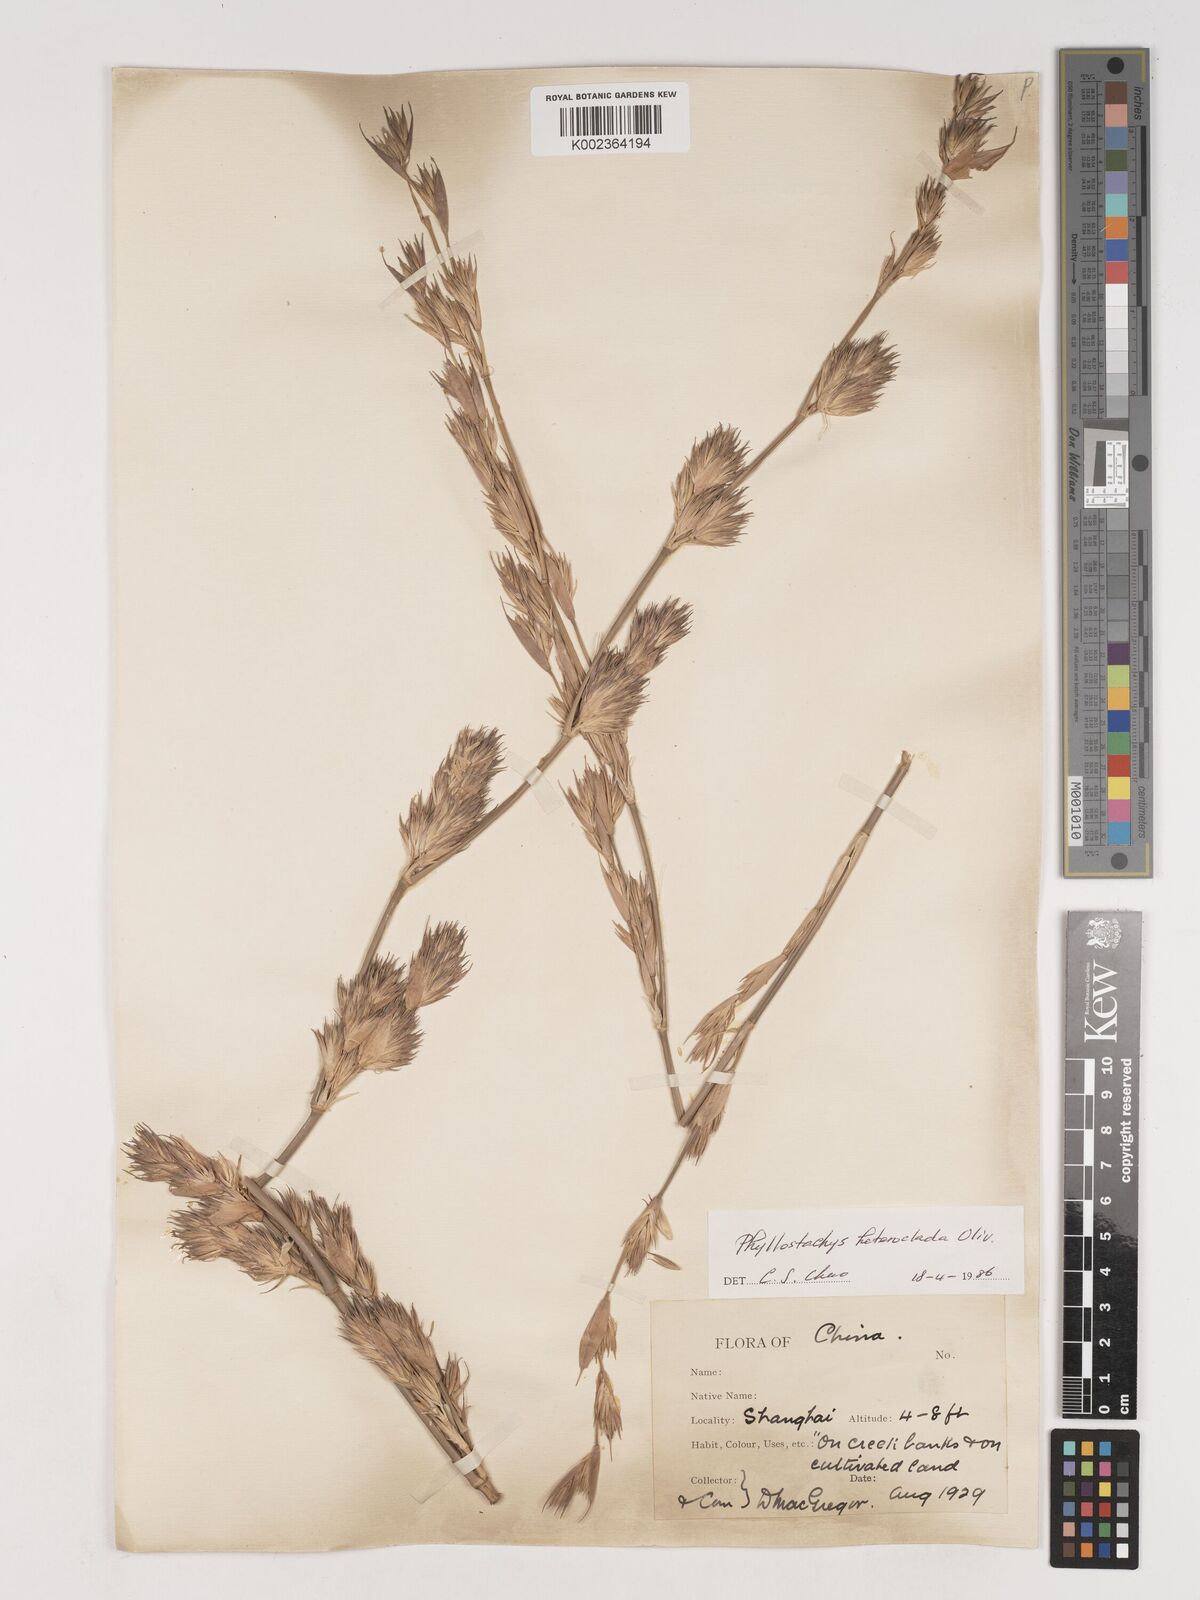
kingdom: Plantae
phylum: Tracheophyta
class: Liliopsida
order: Poales
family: Poaceae
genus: Phyllostachys
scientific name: Phyllostachys heteroclada
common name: Fishscale bamboo
